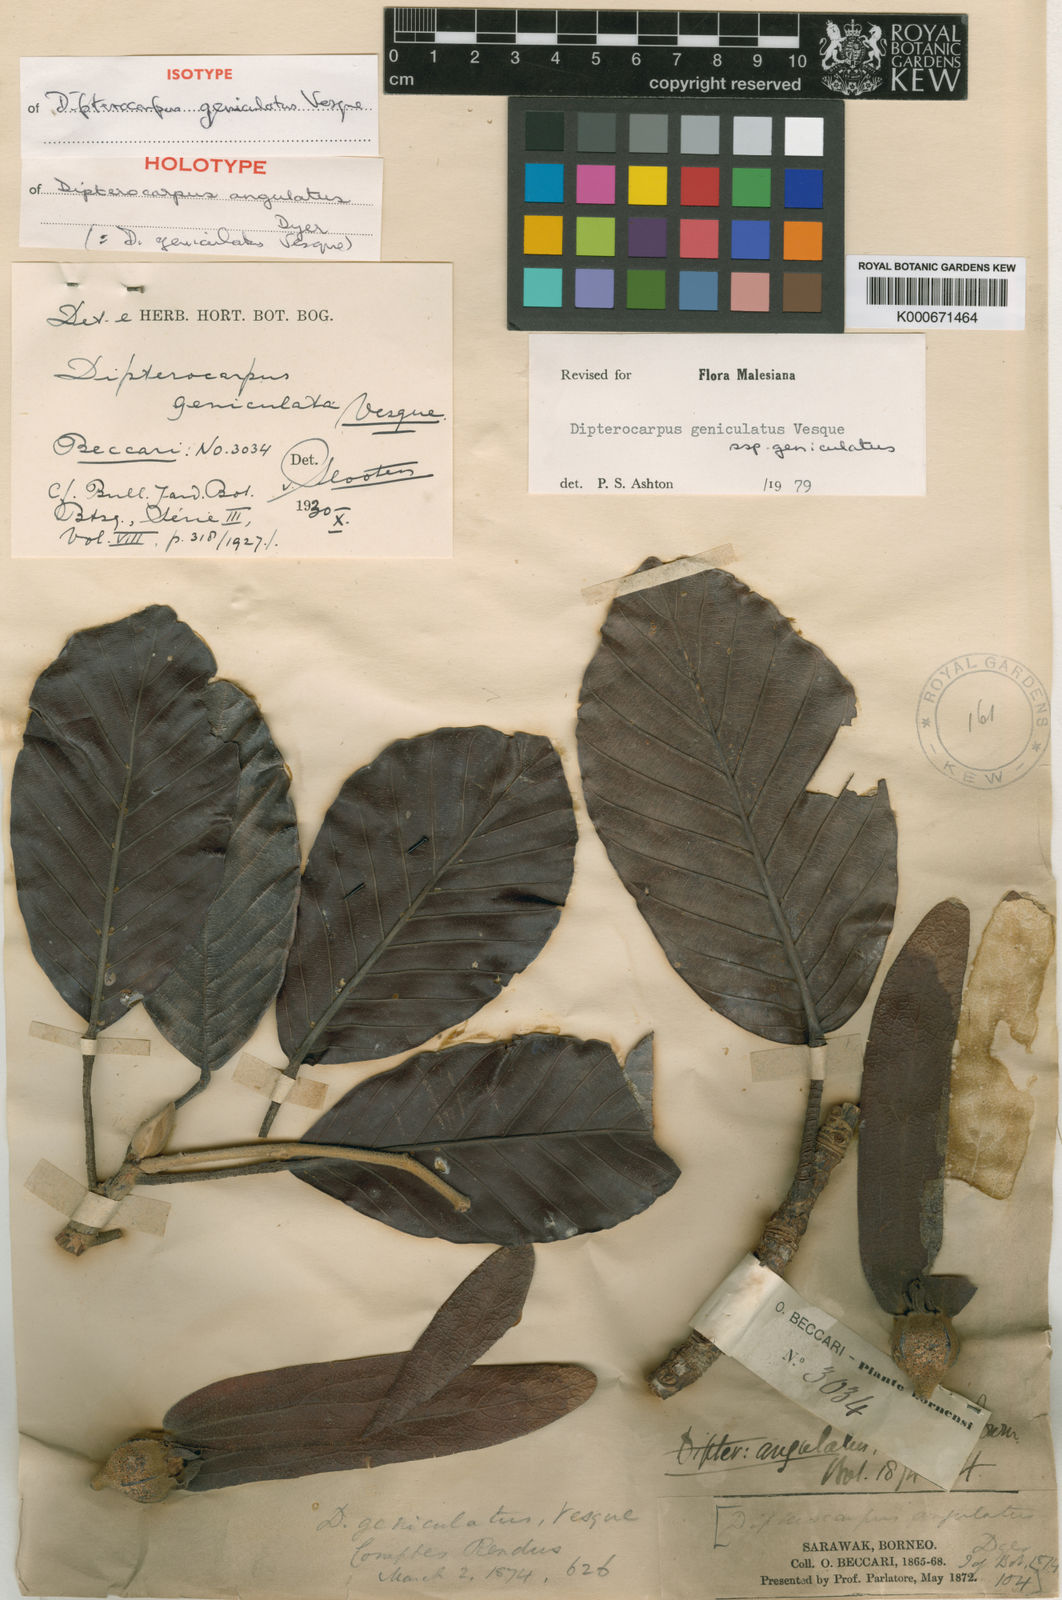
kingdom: Plantae
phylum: Tracheophyta
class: Magnoliopsida
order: Malvales
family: Dipterocarpaceae
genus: Dipterocarpus
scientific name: Dipterocarpus geniculatus
